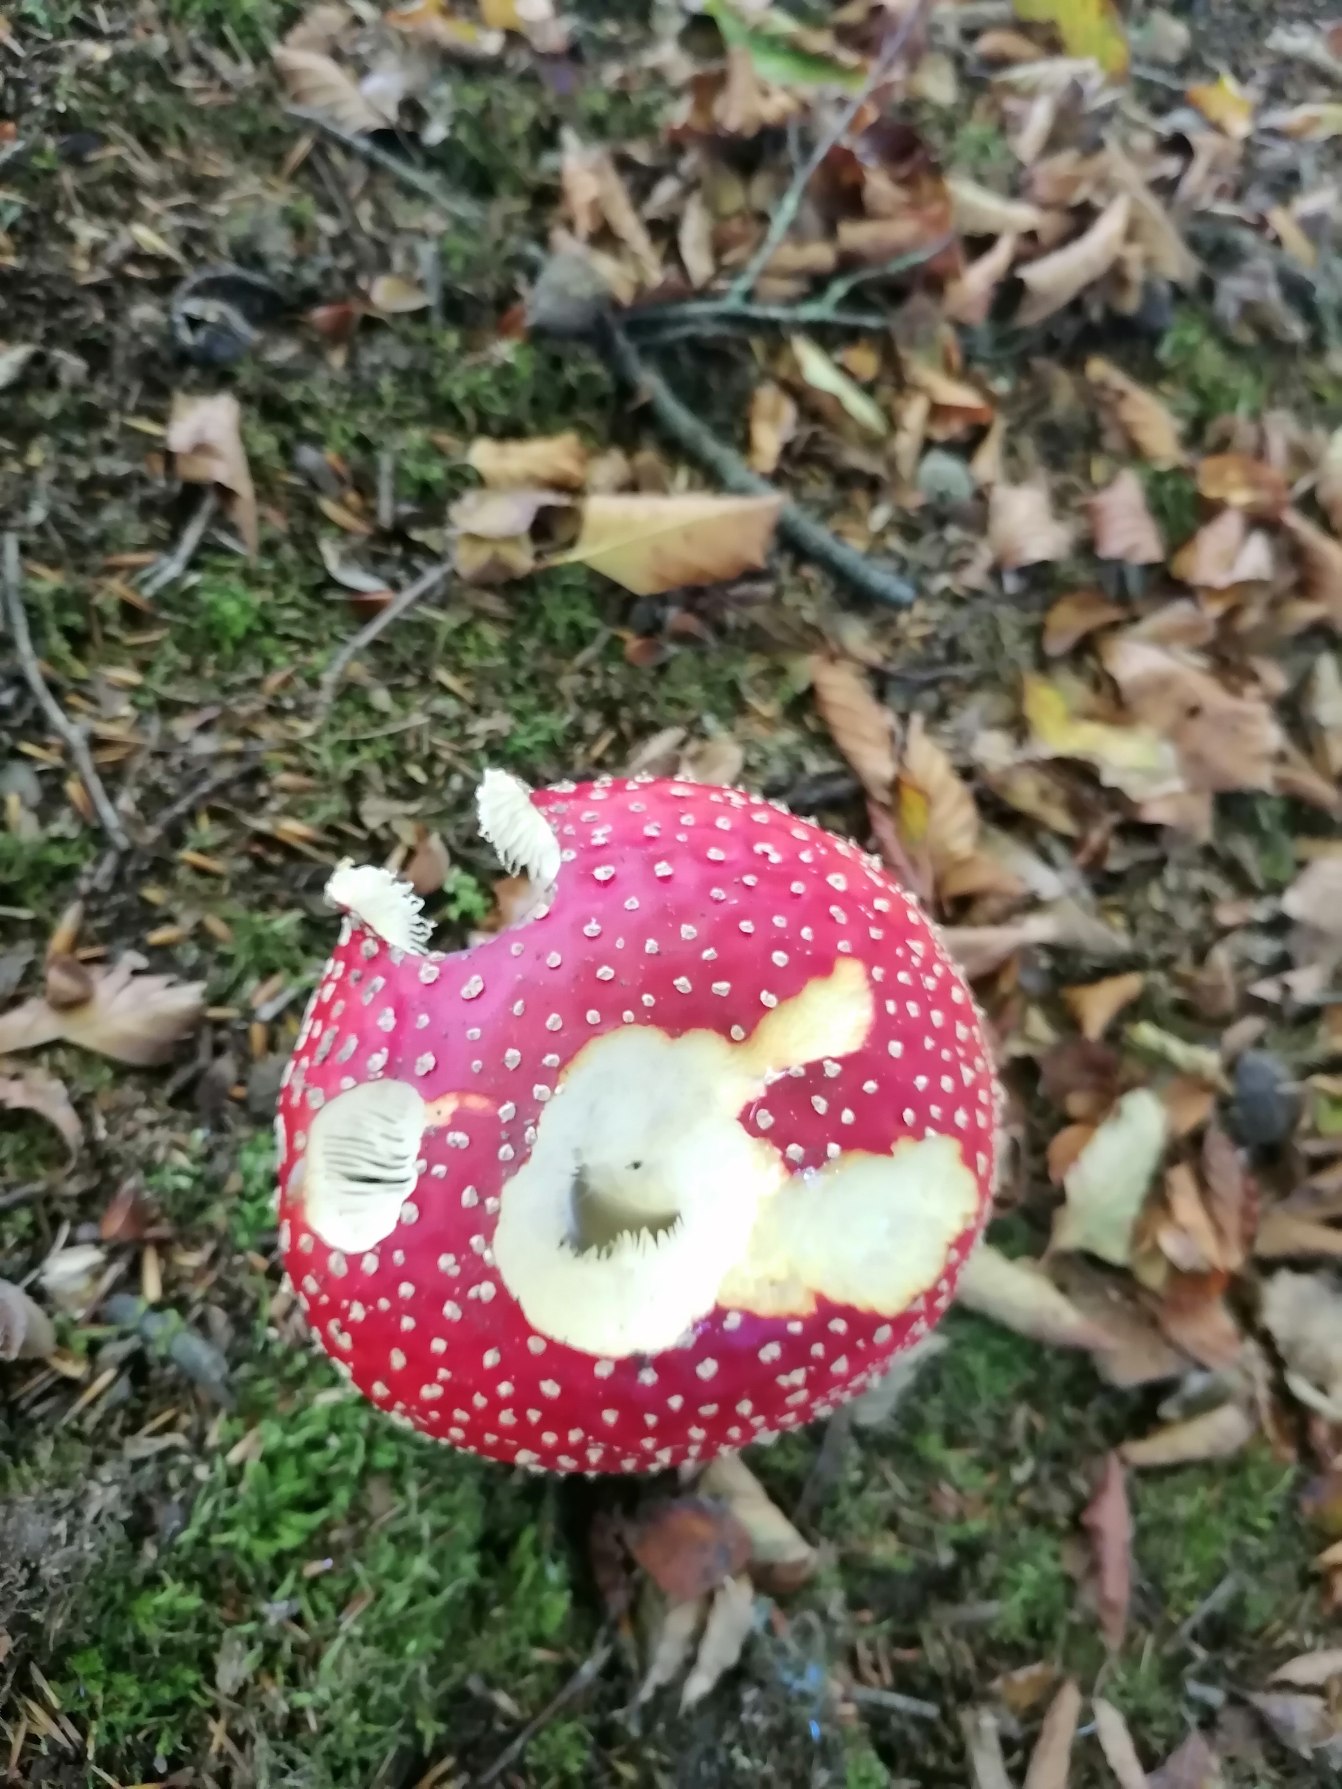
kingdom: Fungi
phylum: Basidiomycota
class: Agaricomycetes
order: Agaricales
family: Amanitaceae
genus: Amanita
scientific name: Amanita muscaria
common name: Rød fluesvamp
